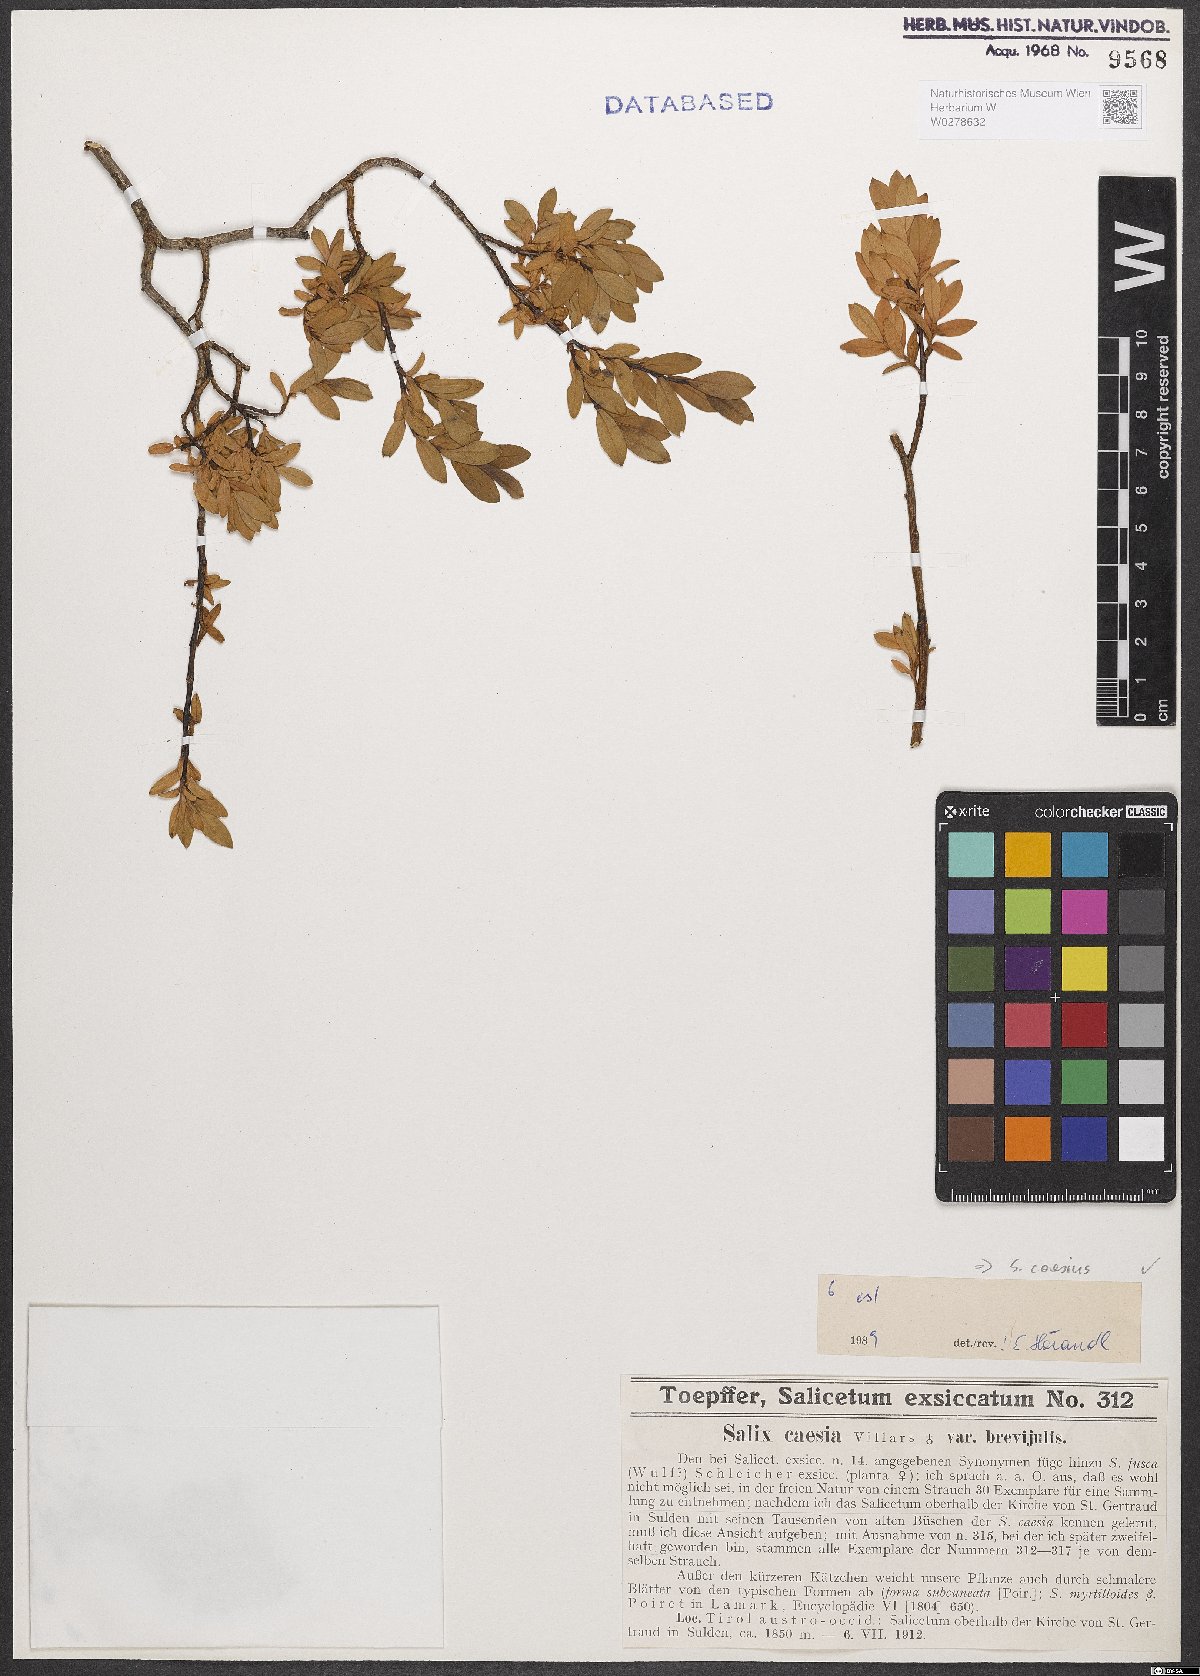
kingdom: Plantae
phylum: Tracheophyta
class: Magnoliopsida
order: Malpighiales
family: Salicaceae
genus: Salix
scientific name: Salix caesia
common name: Blue willow
